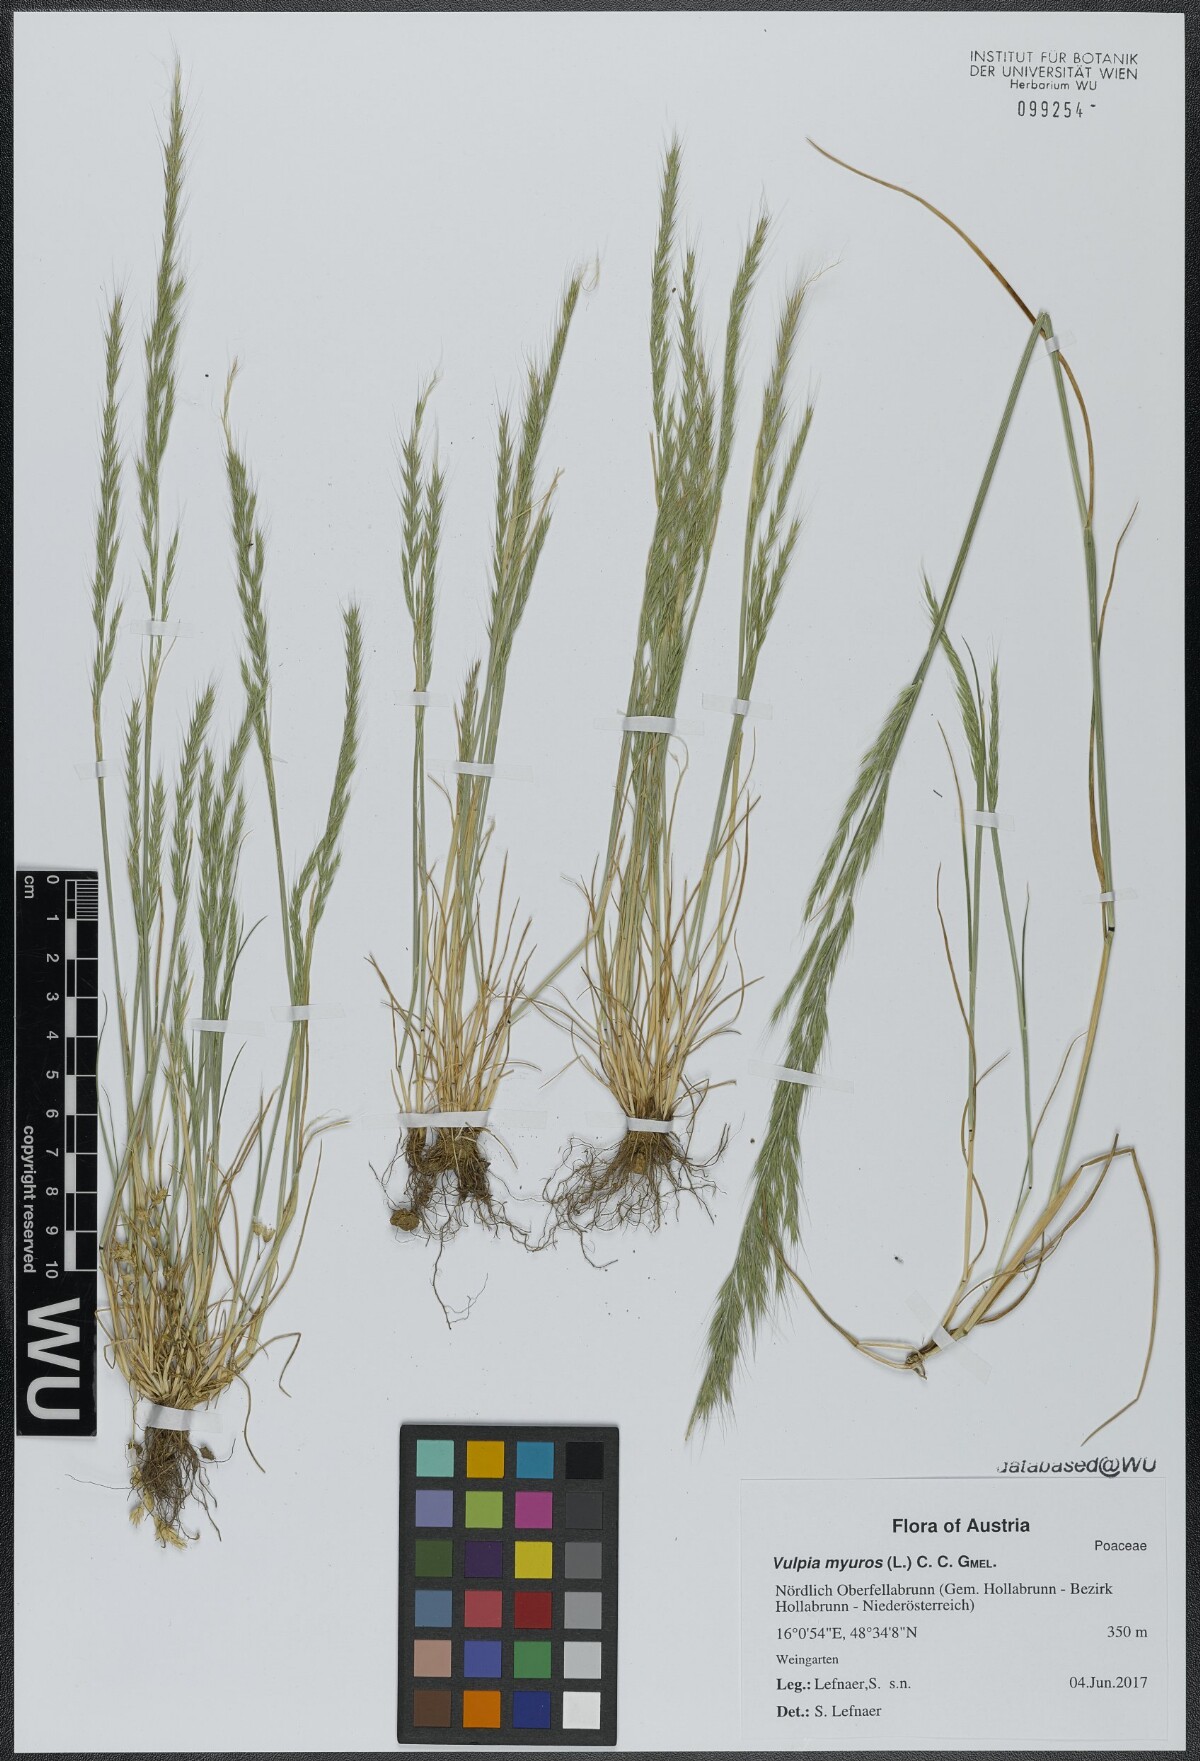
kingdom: Plantae
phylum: Tracheophyta
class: Liliopsida
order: Poales
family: Poaceae
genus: Festuca
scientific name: Festuca myuros
